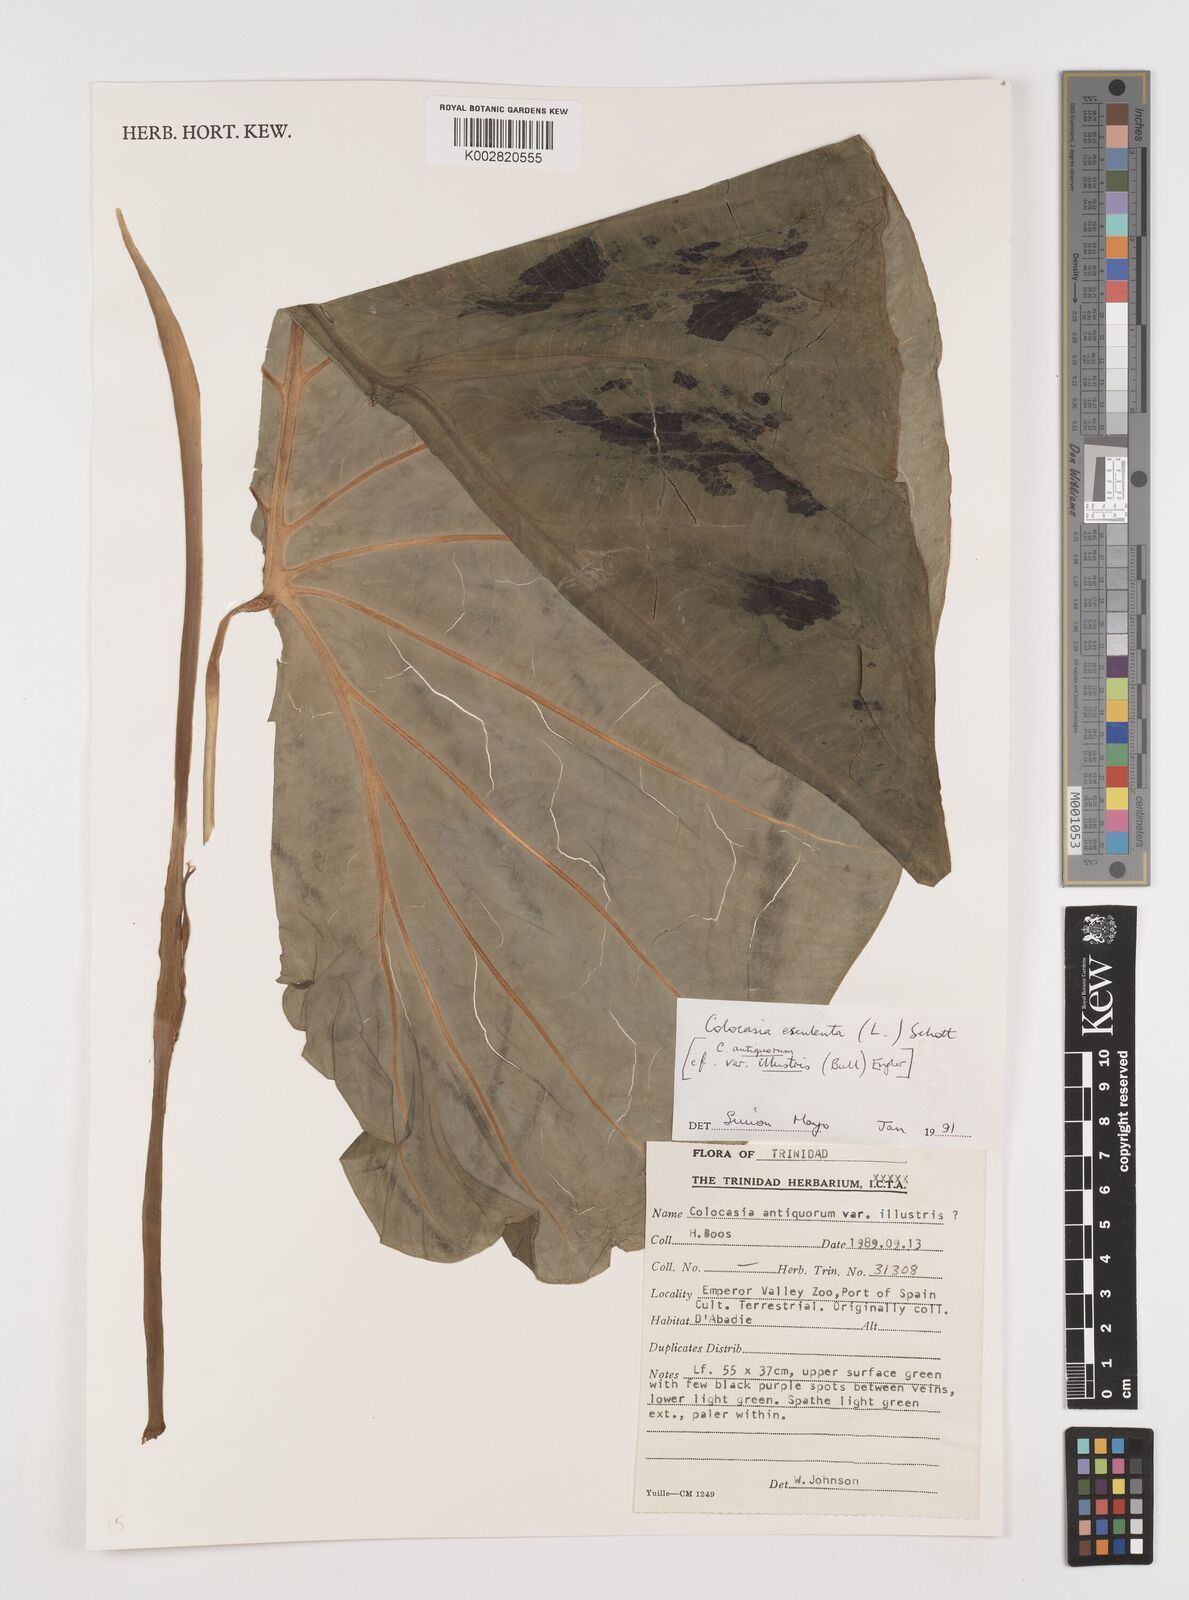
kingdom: Plantae
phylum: Tracheophyta
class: Liliopsida
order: Alismatales
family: Araceae
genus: Colocasia
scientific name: Colocasia esculenta
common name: Taro
